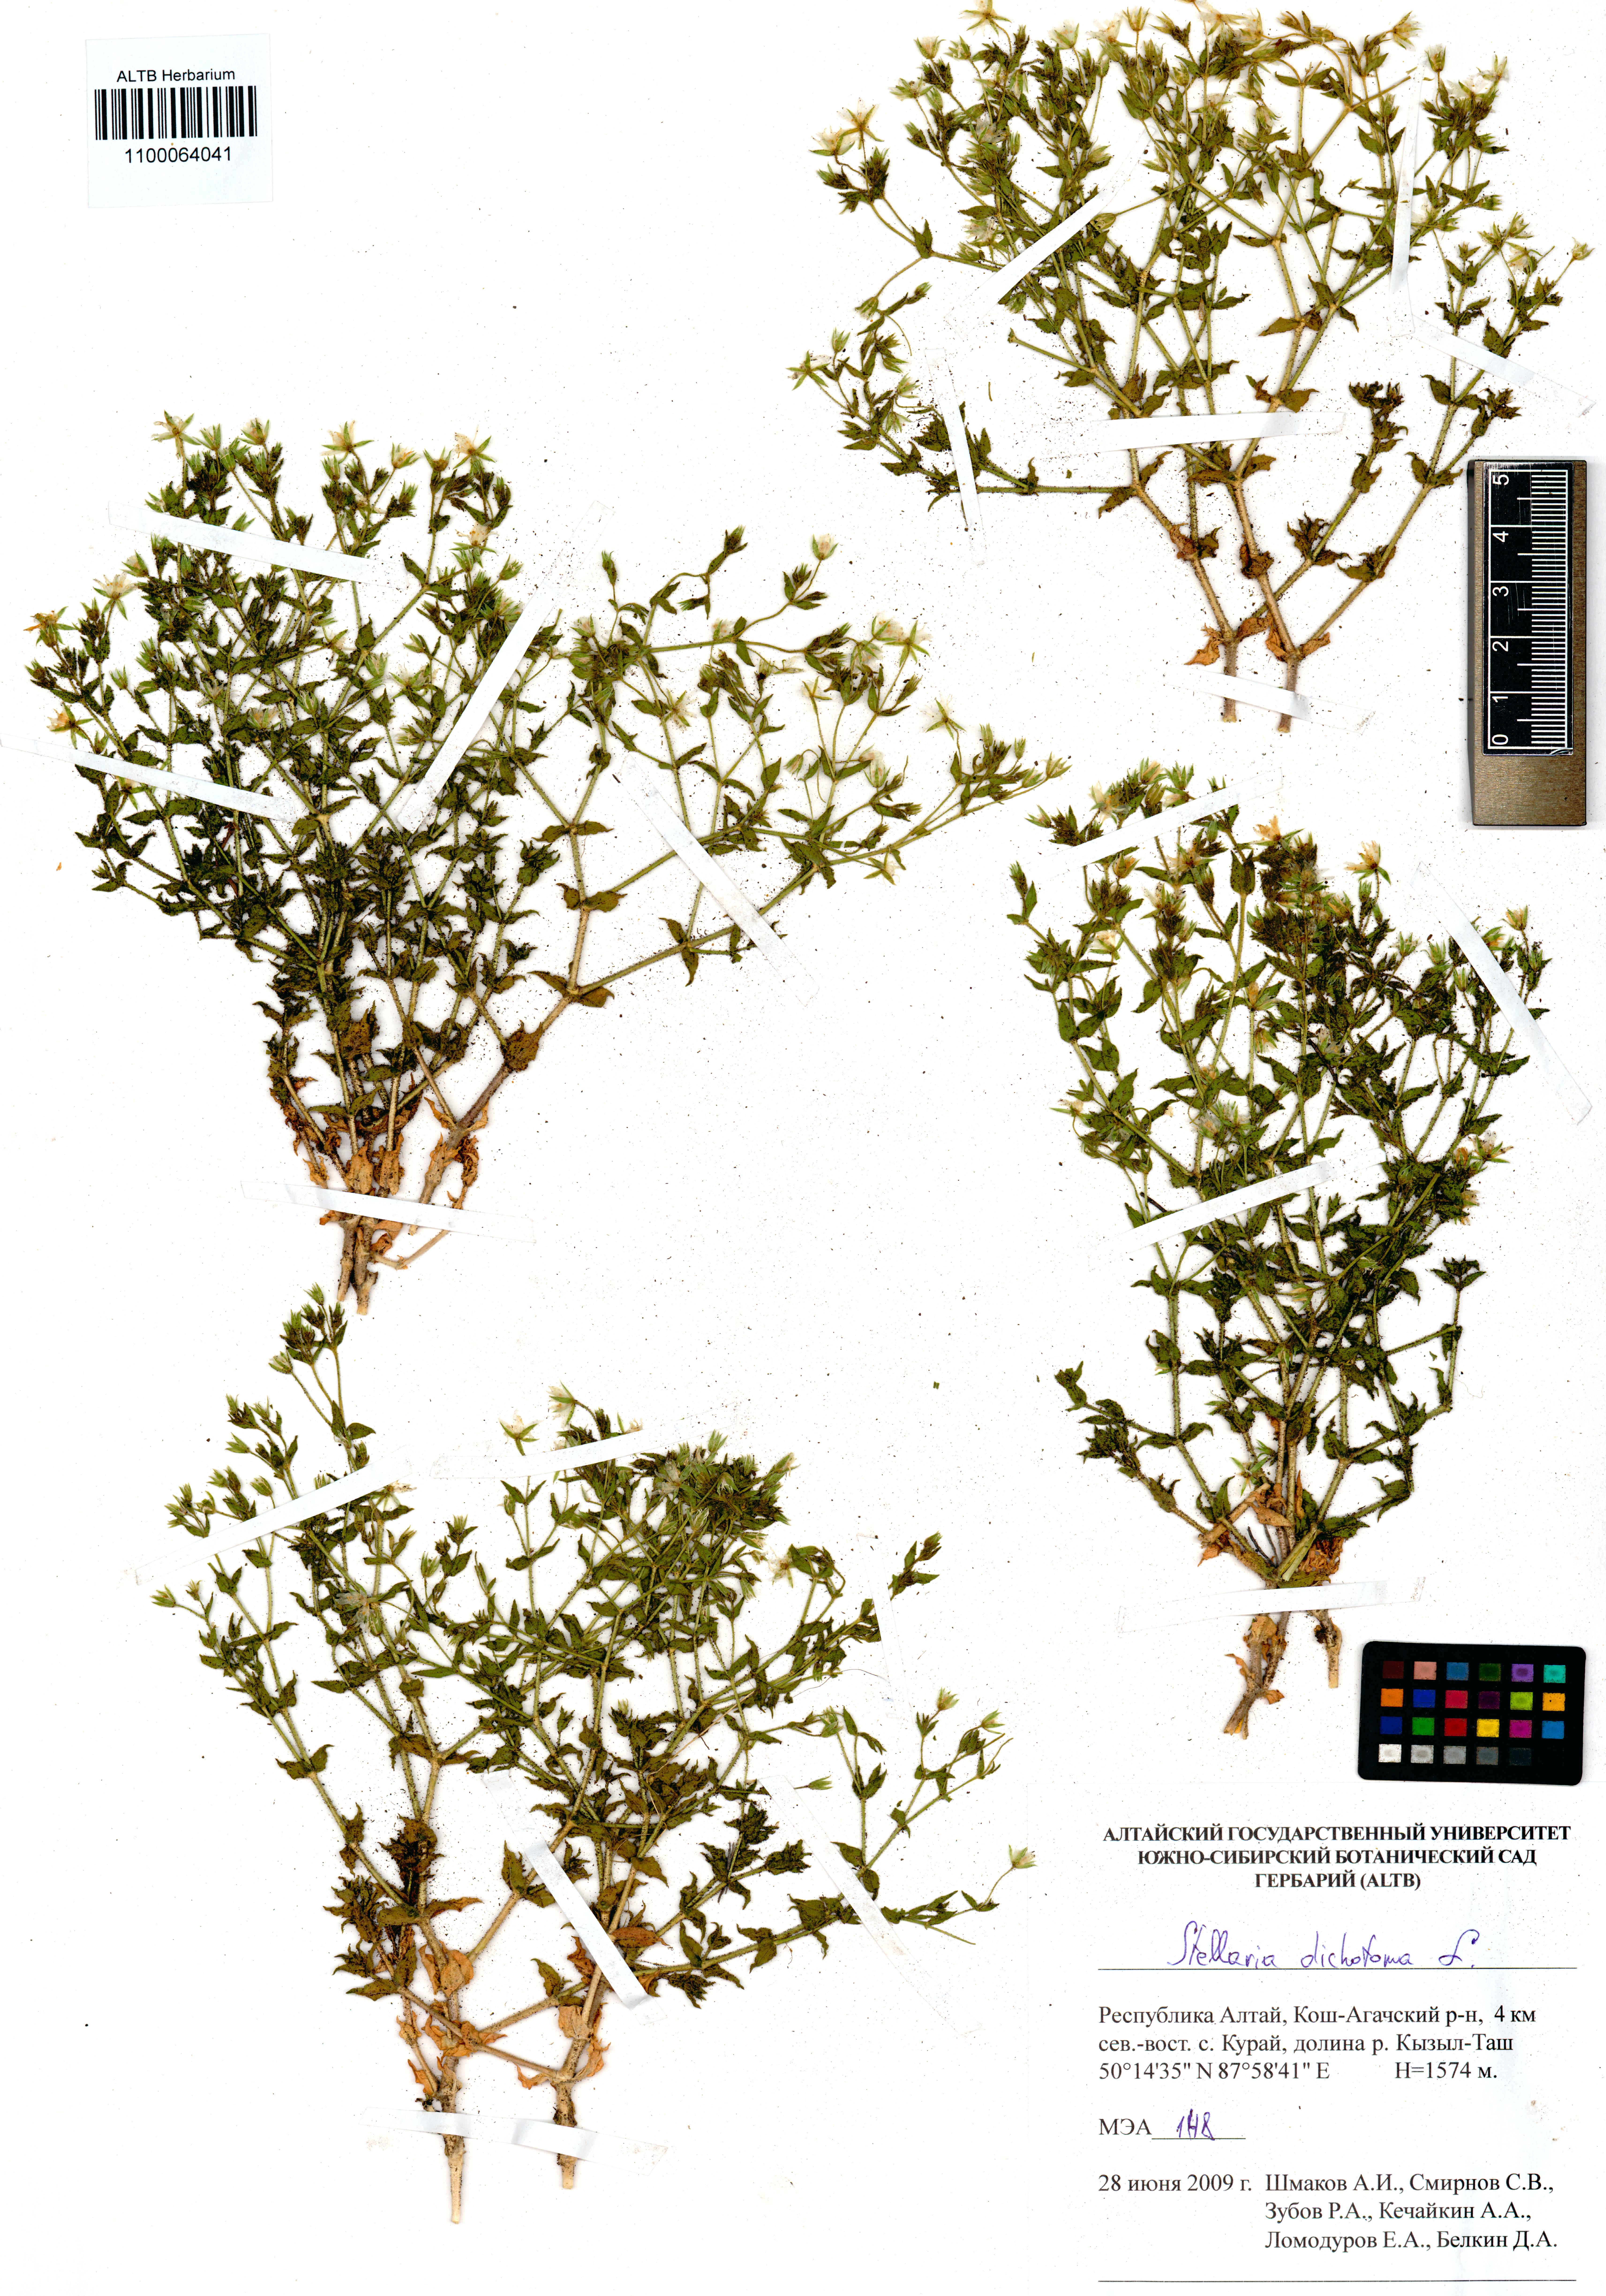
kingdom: Plantae
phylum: Tracheophyta
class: Magnoliopsida
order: Caryophyllales
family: Caryophyllaceae
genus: Mesostemma
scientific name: Mesostemma dichotomum
